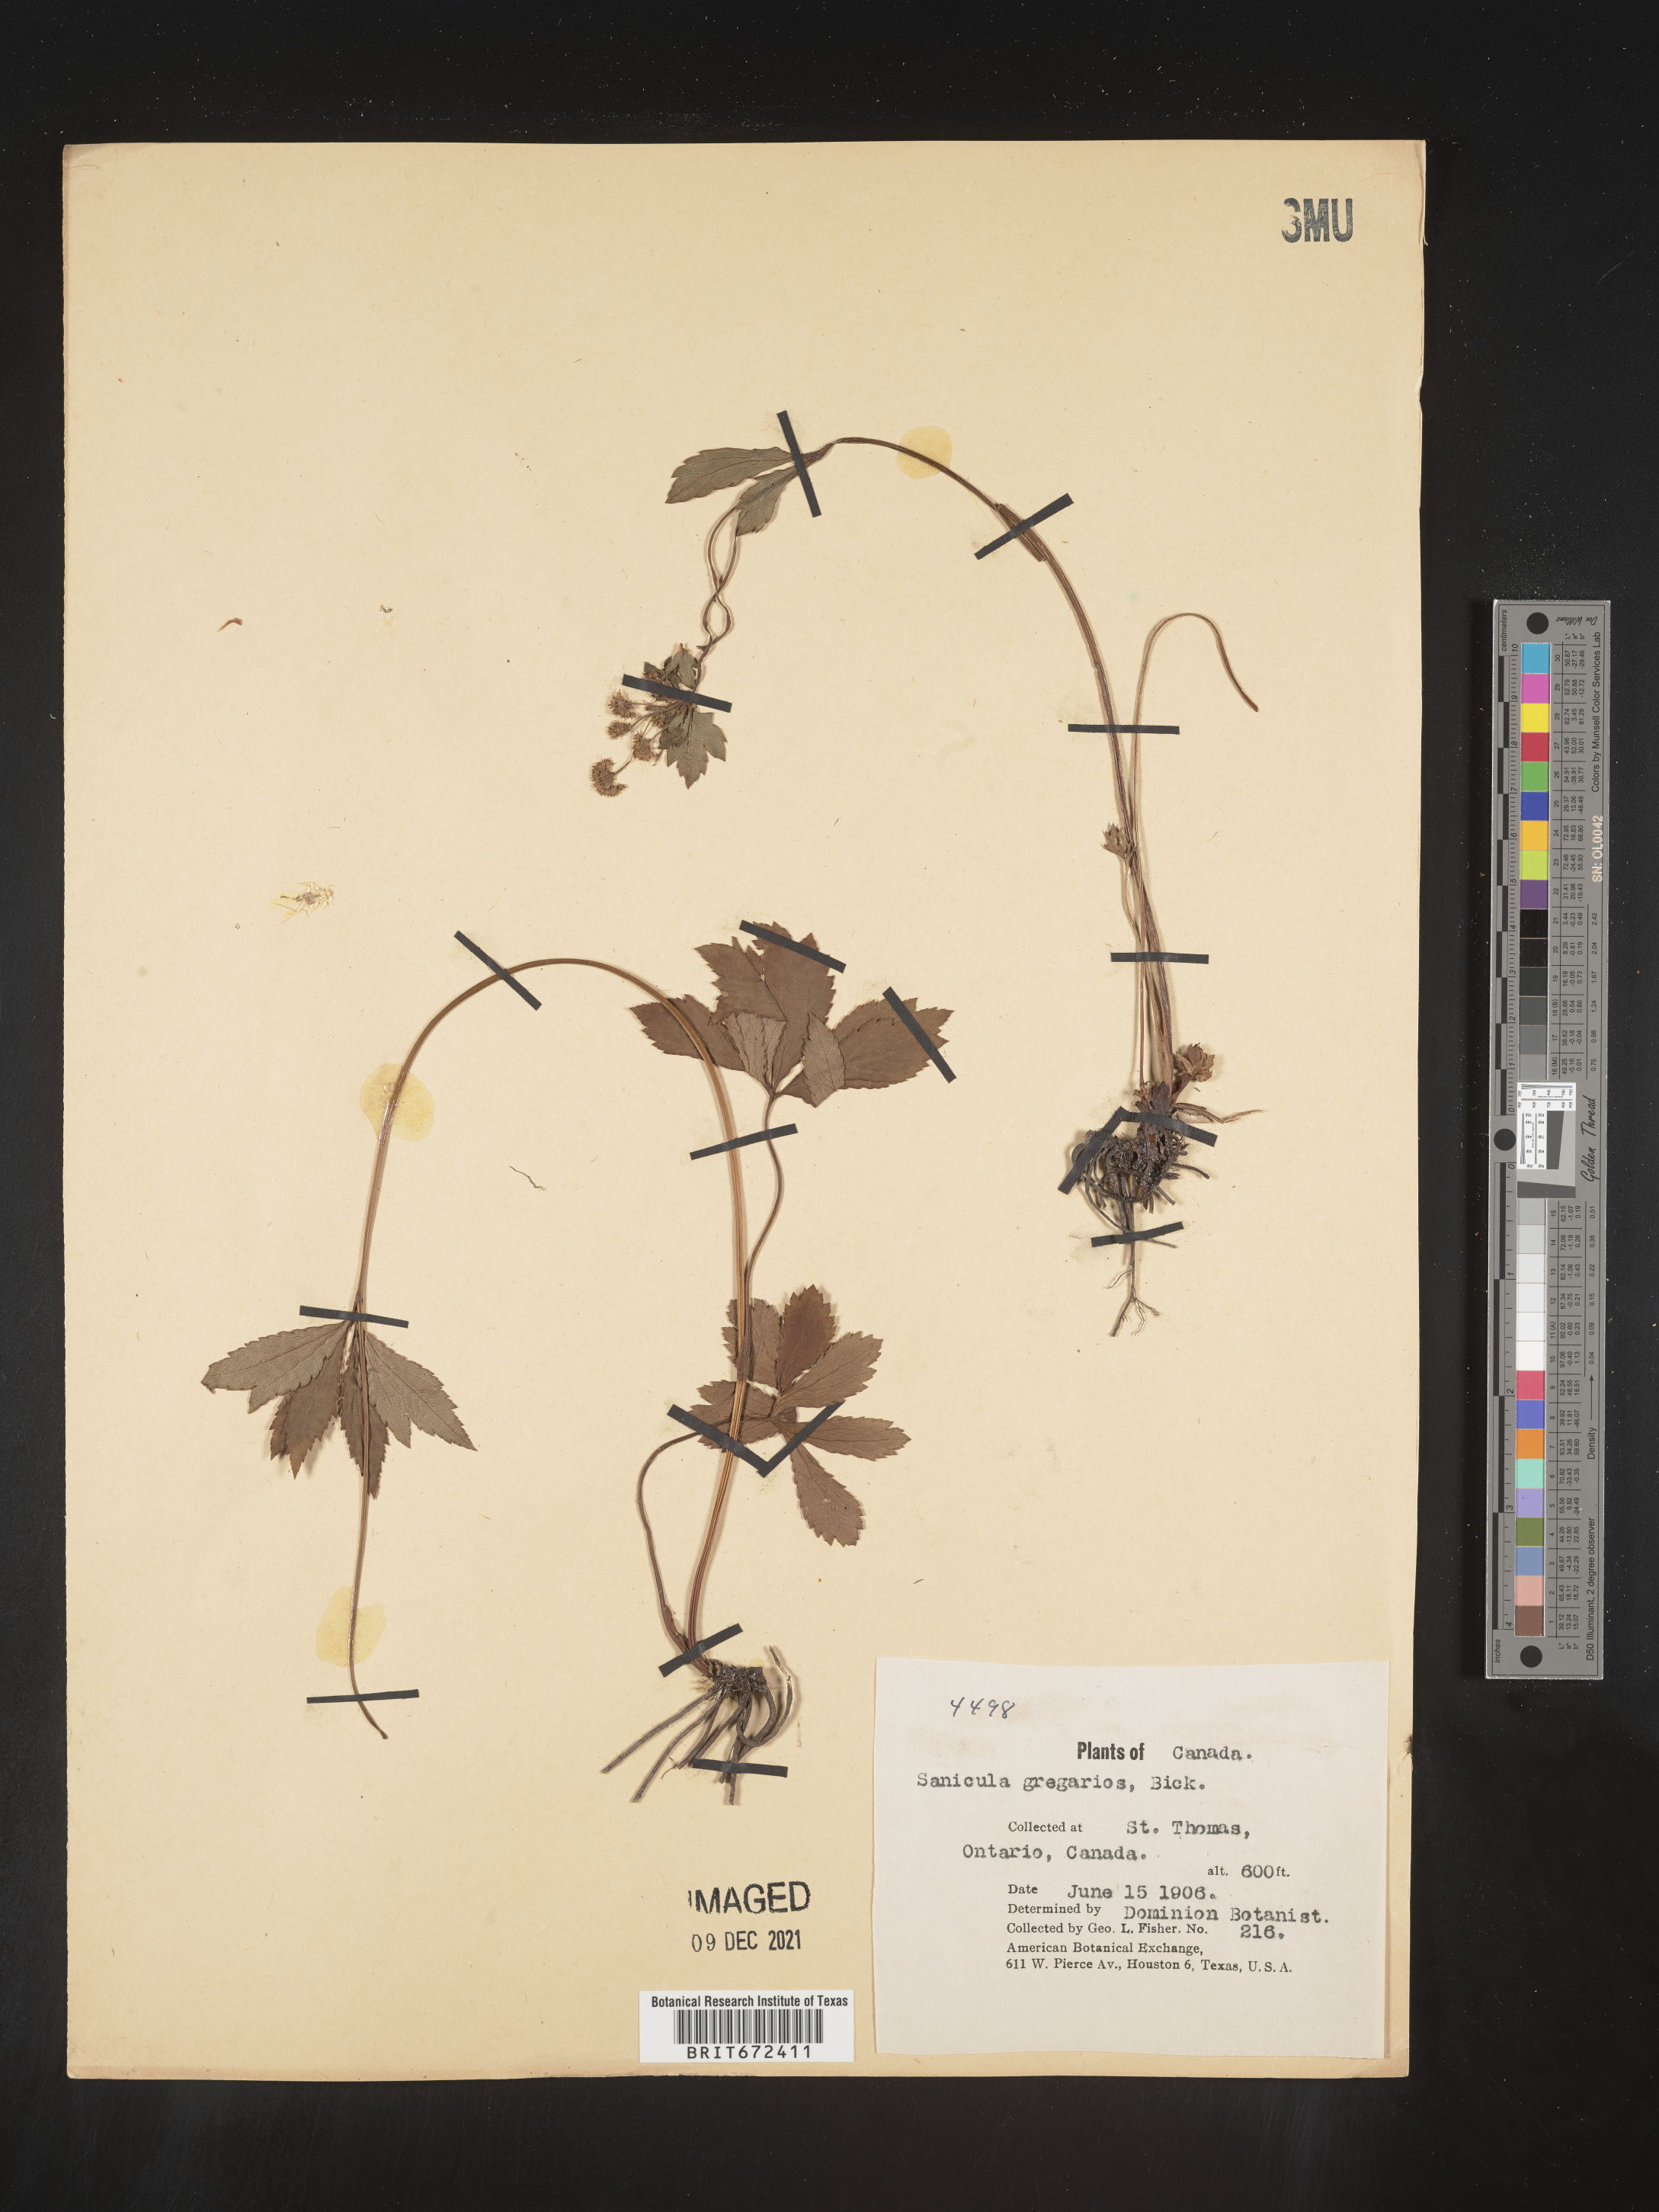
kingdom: Plantae
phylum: Tracheophyta
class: Magnoliopsida
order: Apiales
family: Apiaceae
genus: Sanicula
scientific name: Sanicula odorata
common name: Cluster sanicle
